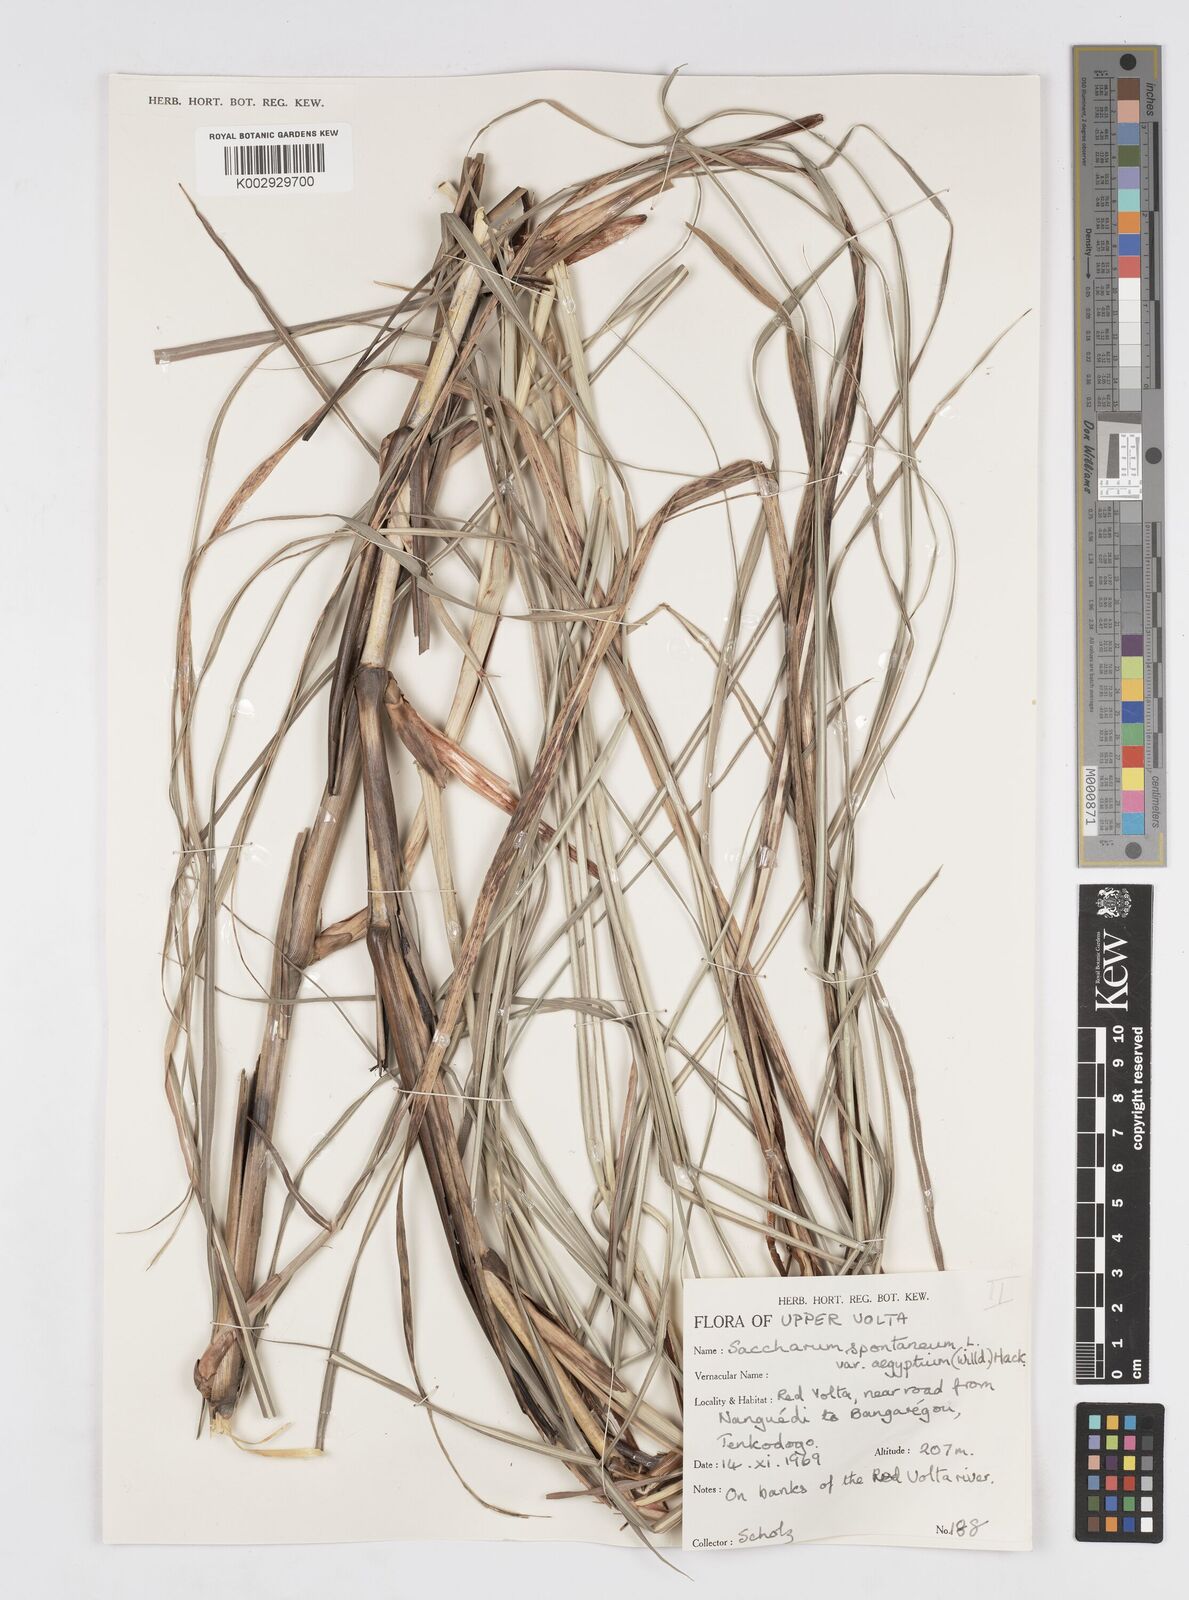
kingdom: Plantae
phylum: Tracheophyta
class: Liliopsida
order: Poales
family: Poaceae
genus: Saccharum
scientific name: Saccharum spontaneum
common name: Wild sugarcane
